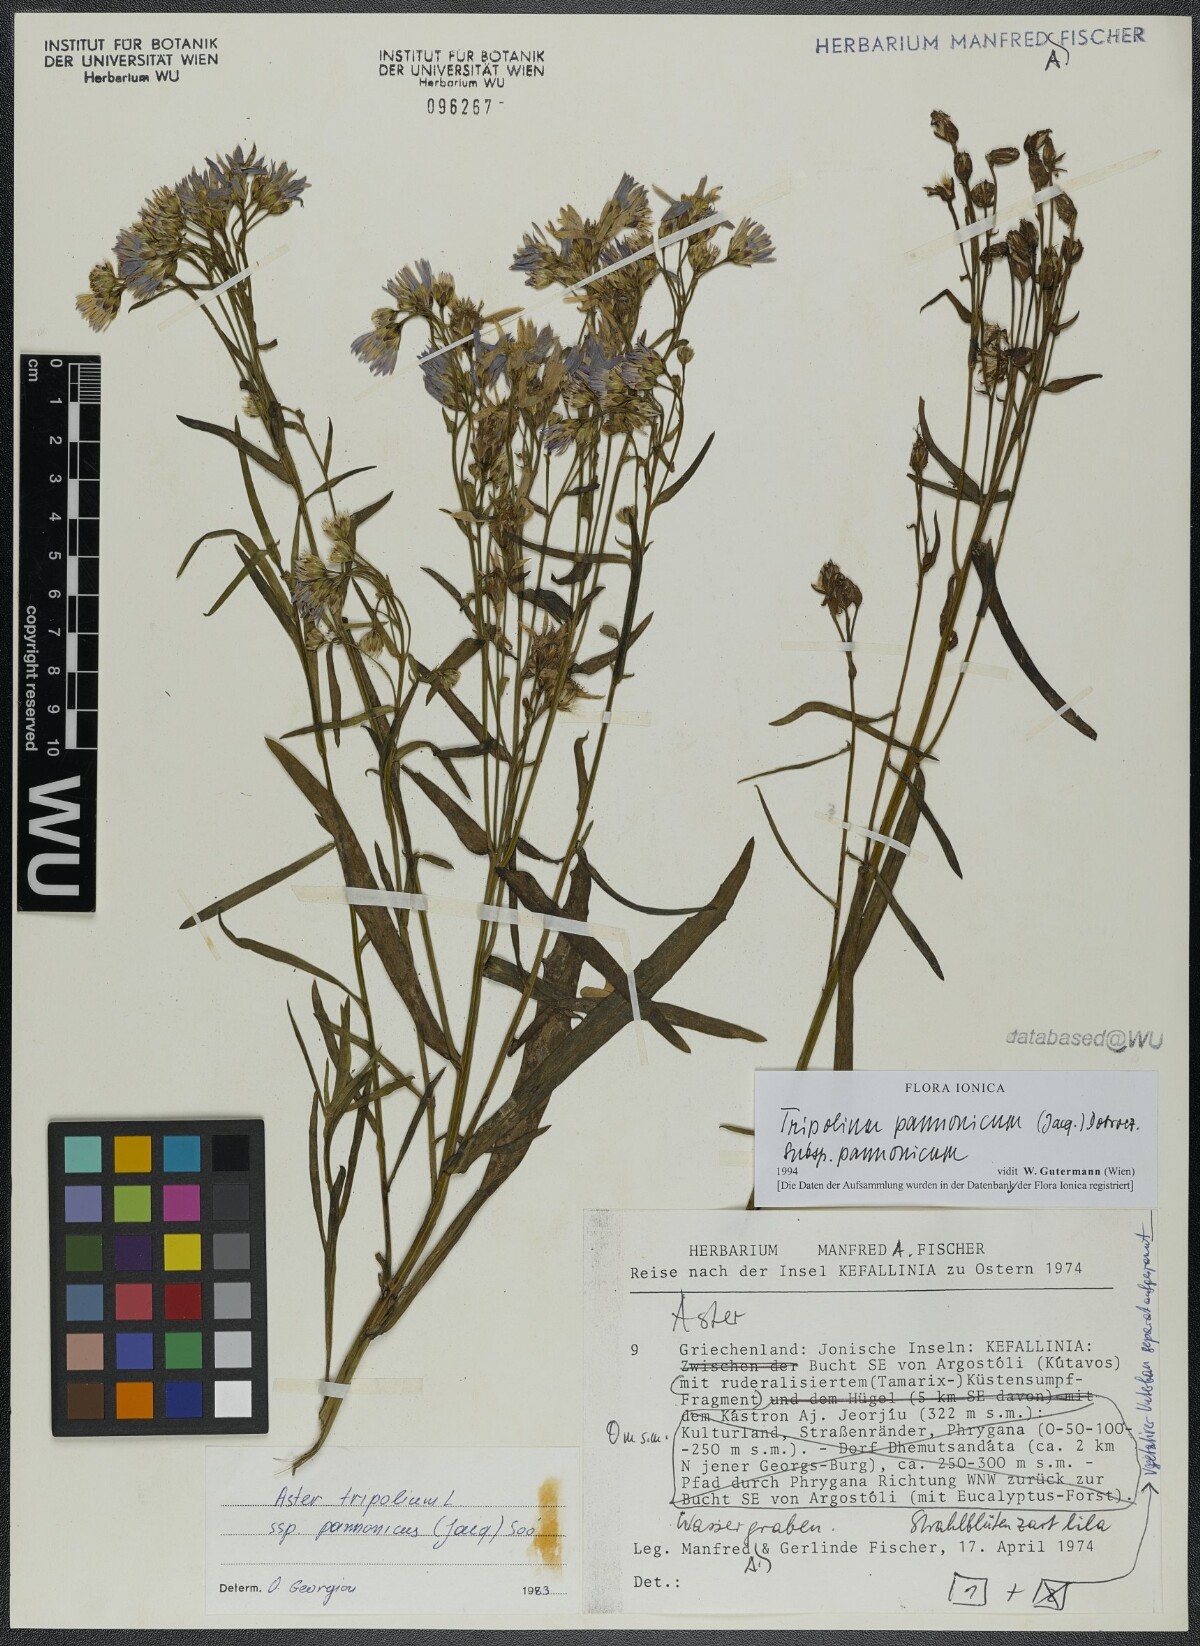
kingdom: Plantae
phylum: Tracheophyta
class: Magnoliopsida
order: Asterales
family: Asteraceae
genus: Tripolium
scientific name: Tripolium pannonicum
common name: Sea aster
